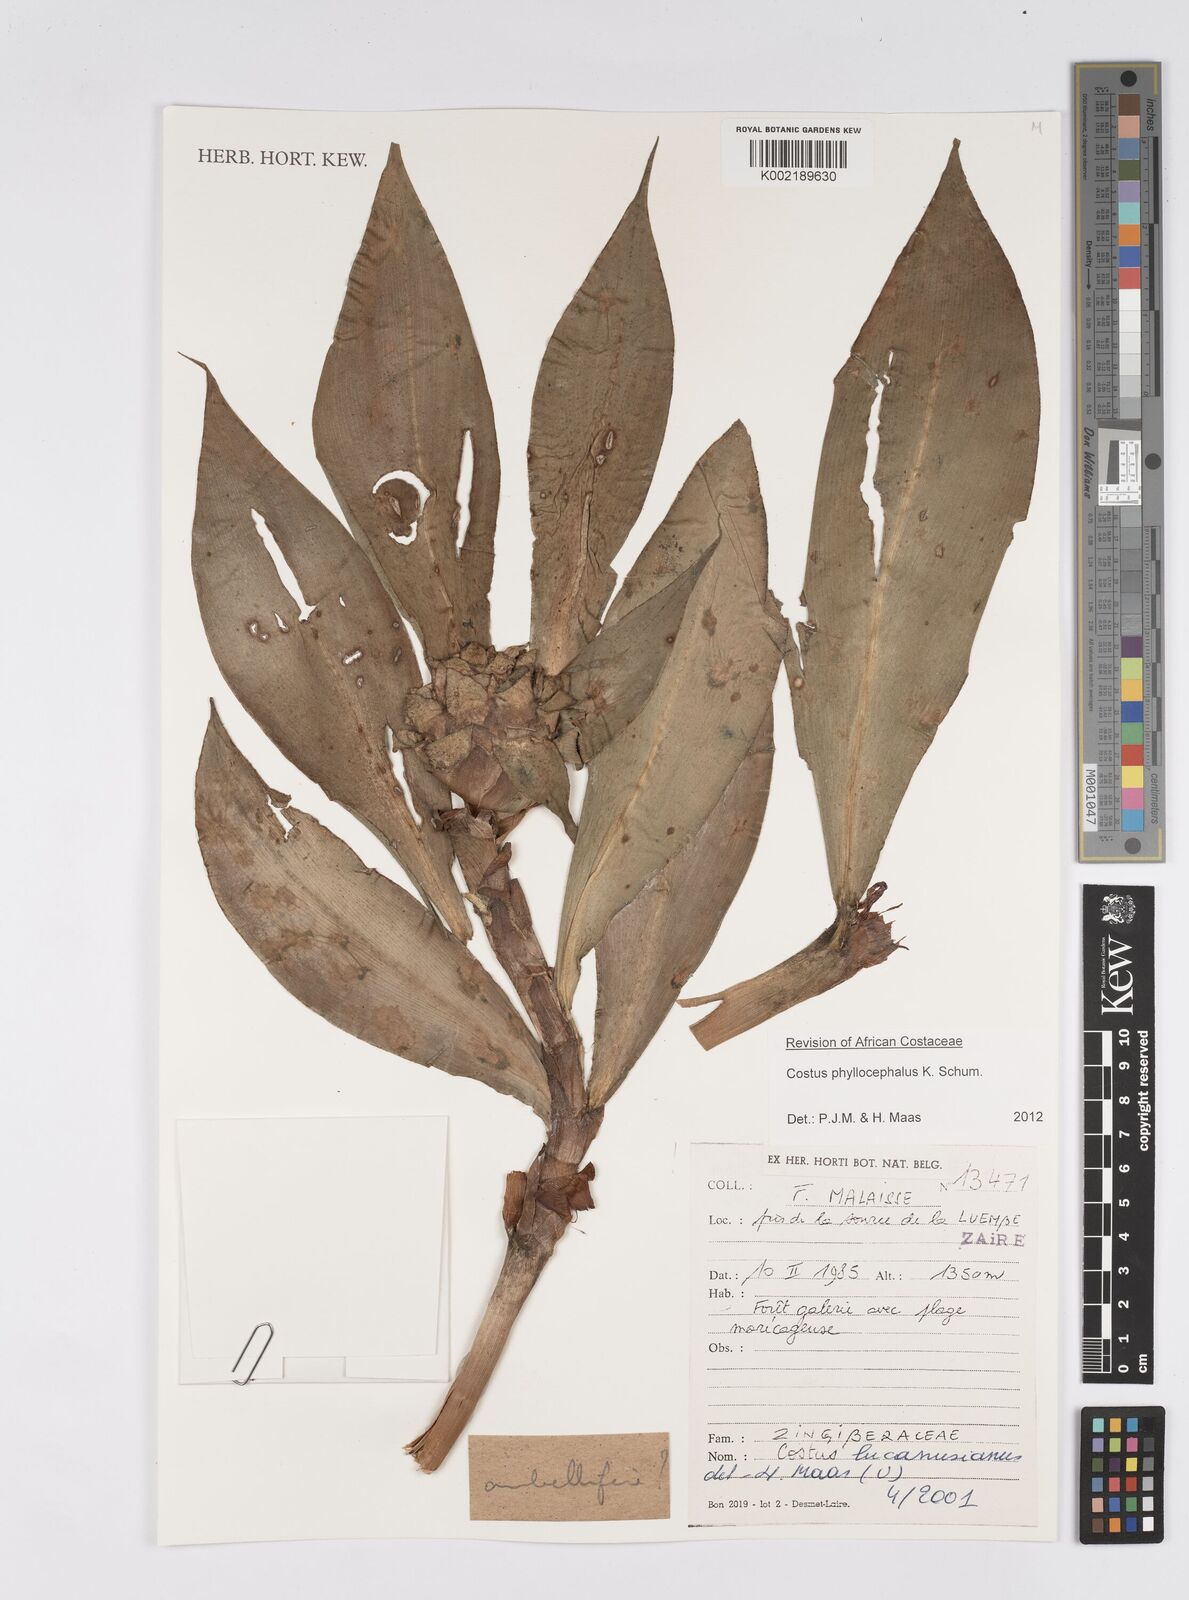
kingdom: Plantae
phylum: Tracheophyta
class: Liliopsida
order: Zingiberales
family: Costaceae
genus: Costus
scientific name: Costus phyllocephalus
